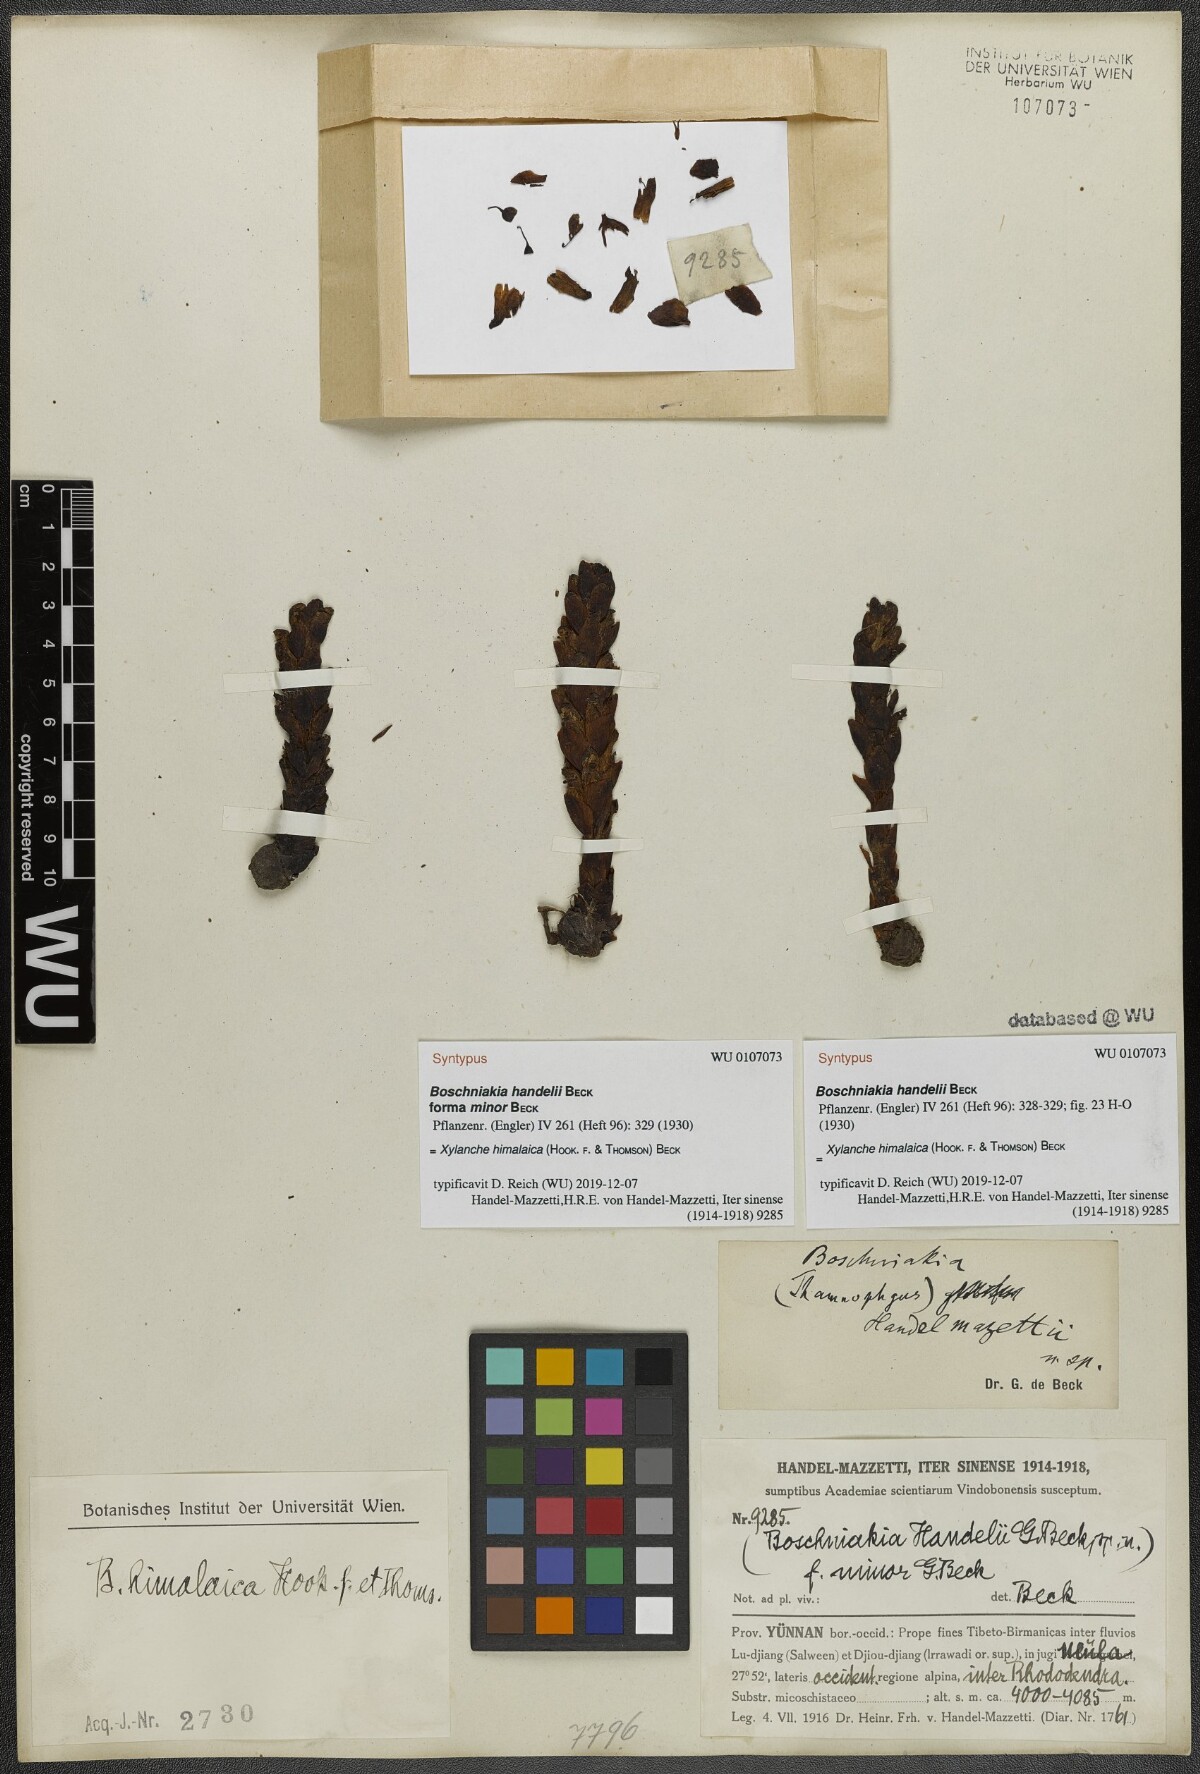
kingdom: Plantae
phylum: Tracheophyta
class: Magnoliopsida
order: Lamiales
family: Orobanchaceae
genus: Boschniakia
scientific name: Boschniakia himalaica
